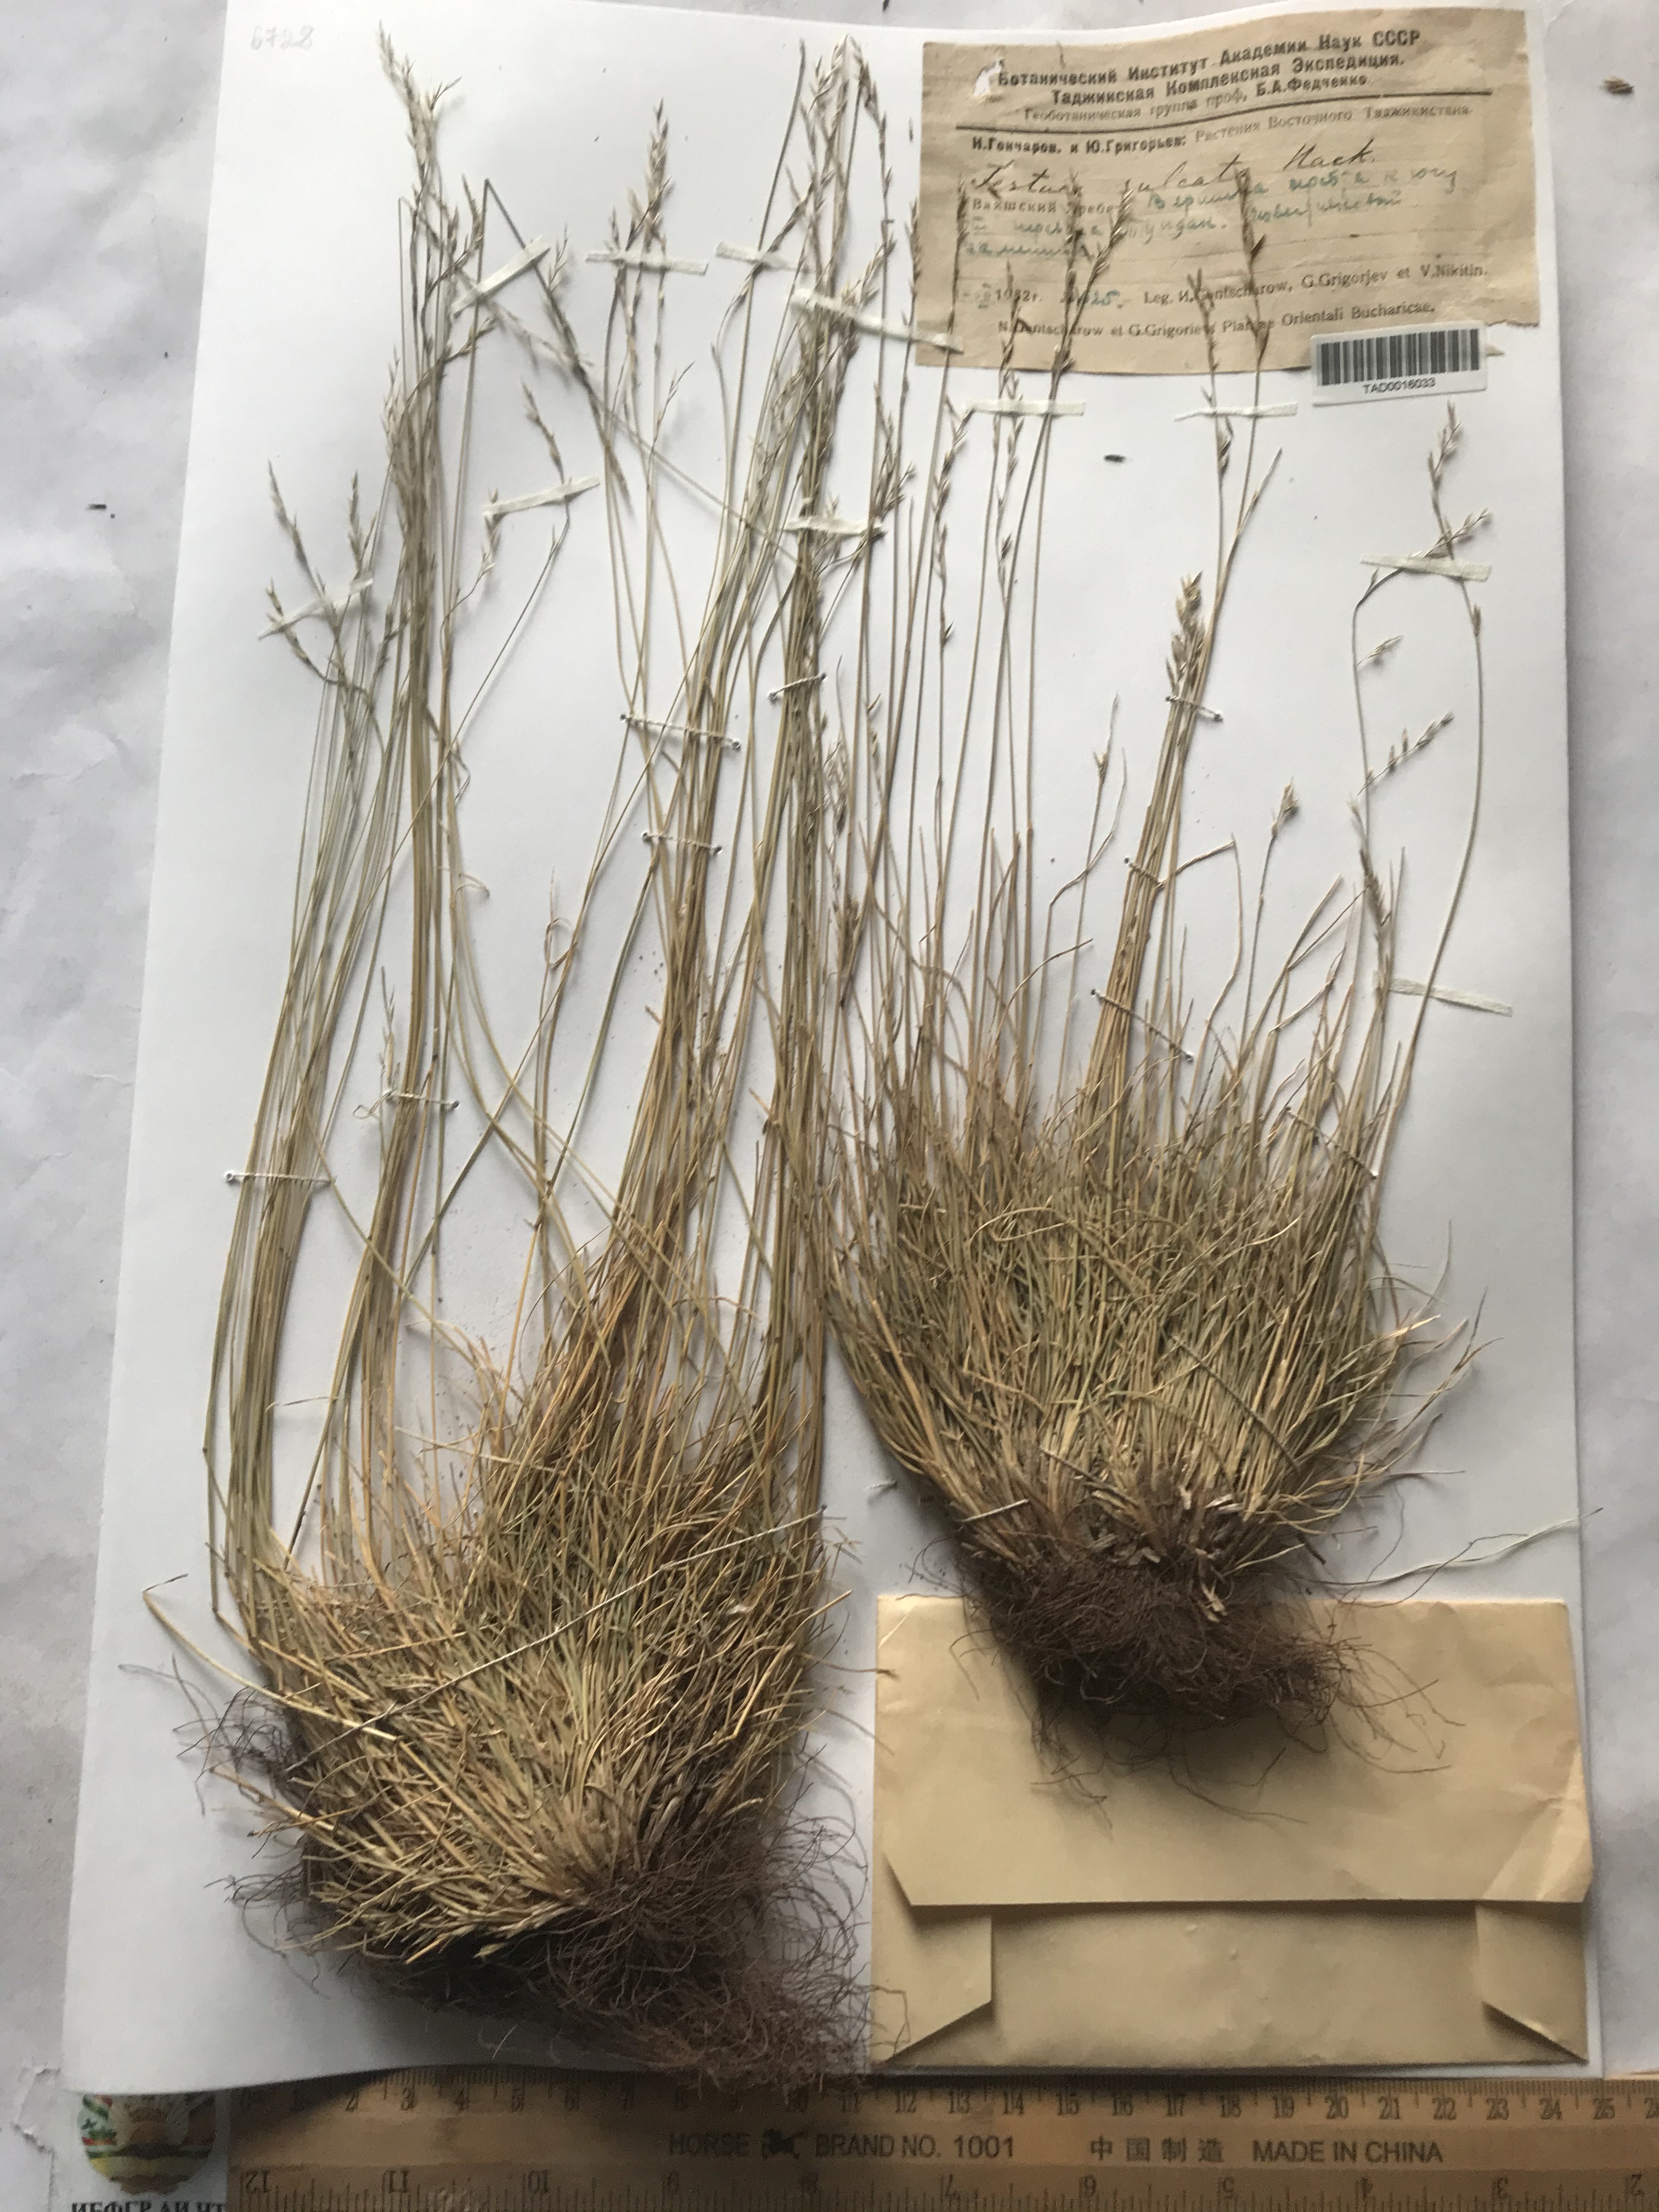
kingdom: Plantae
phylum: Tracheophyta
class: Liliopsida
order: Poales
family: Poaceae
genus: Festuca
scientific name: Festuca sulcata
